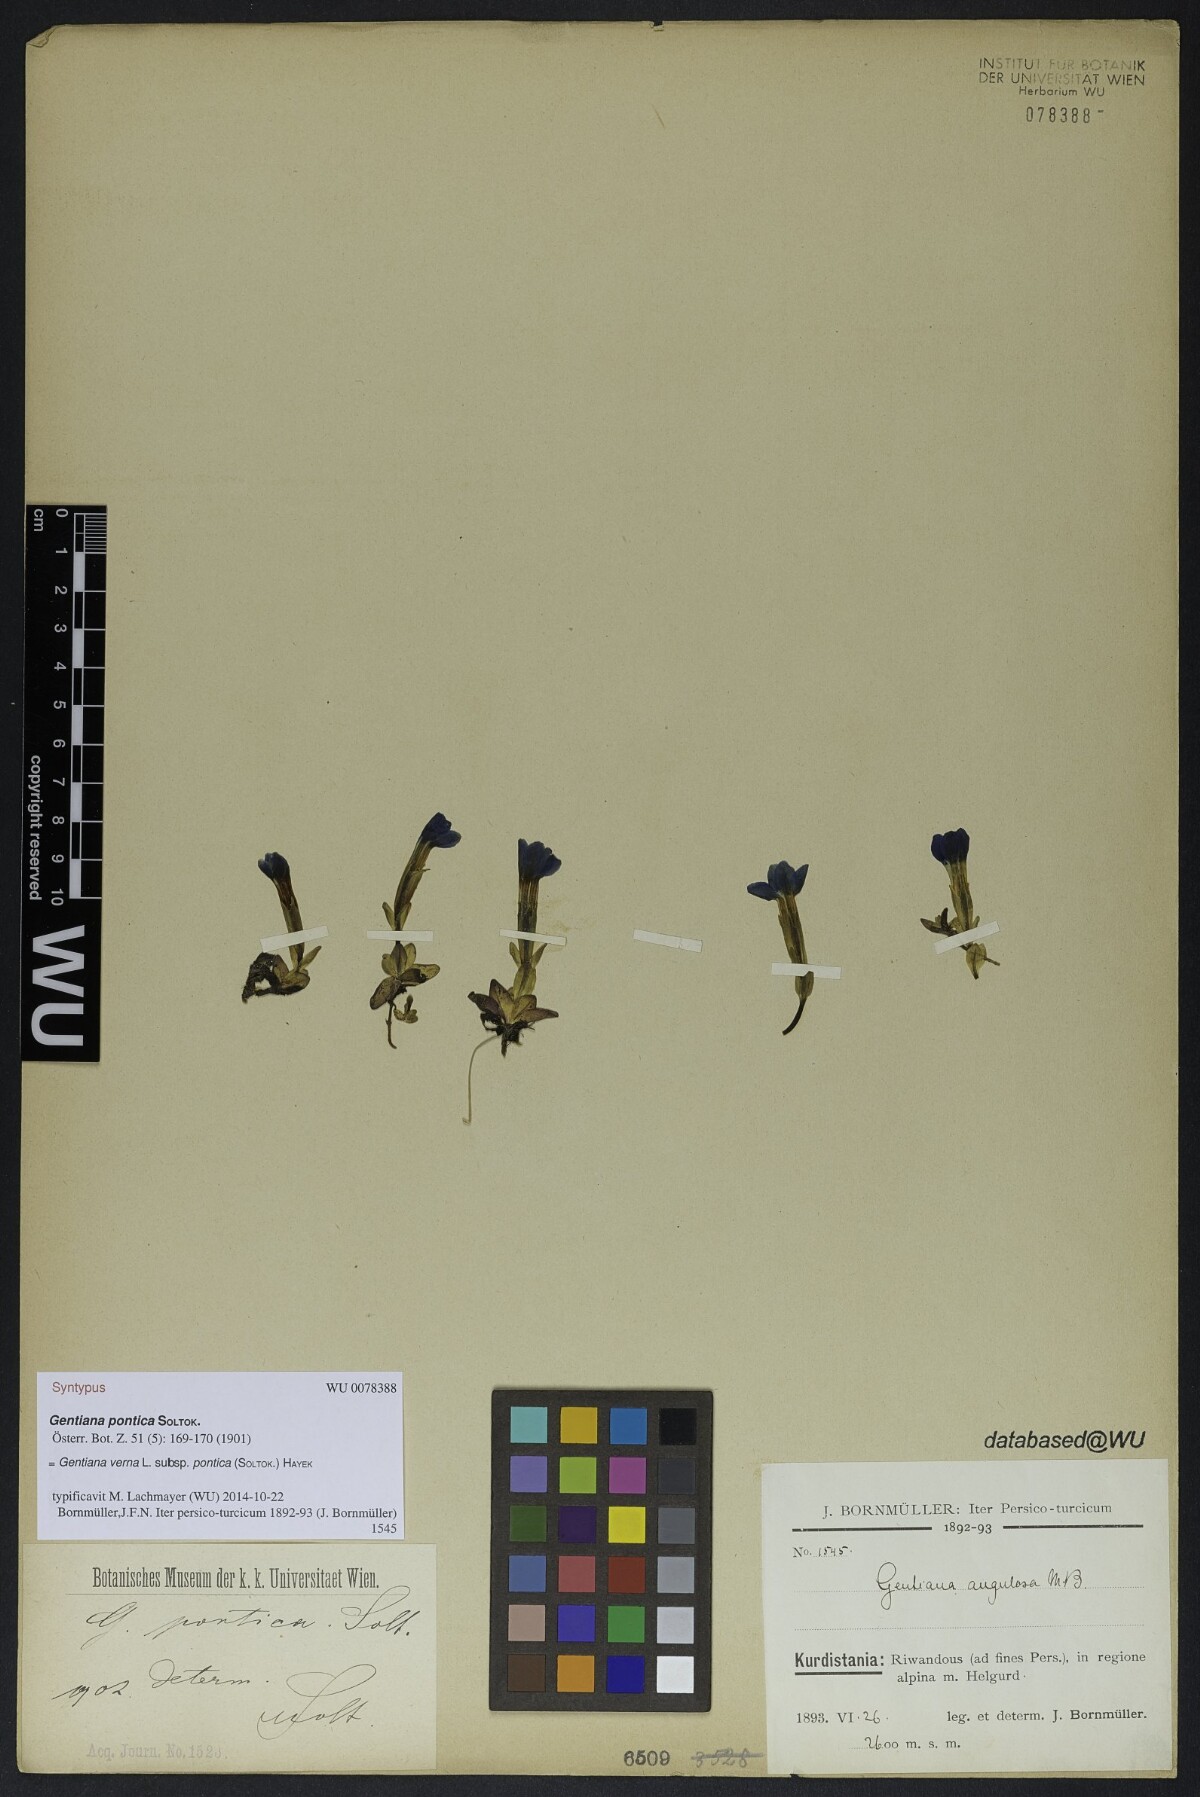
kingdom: Plantae
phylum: Tracheophyta
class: Magnoliopsida
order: Gentianales
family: Gentianaceae
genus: Gentiana
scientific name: Gentiana verna
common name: Spring gentian
